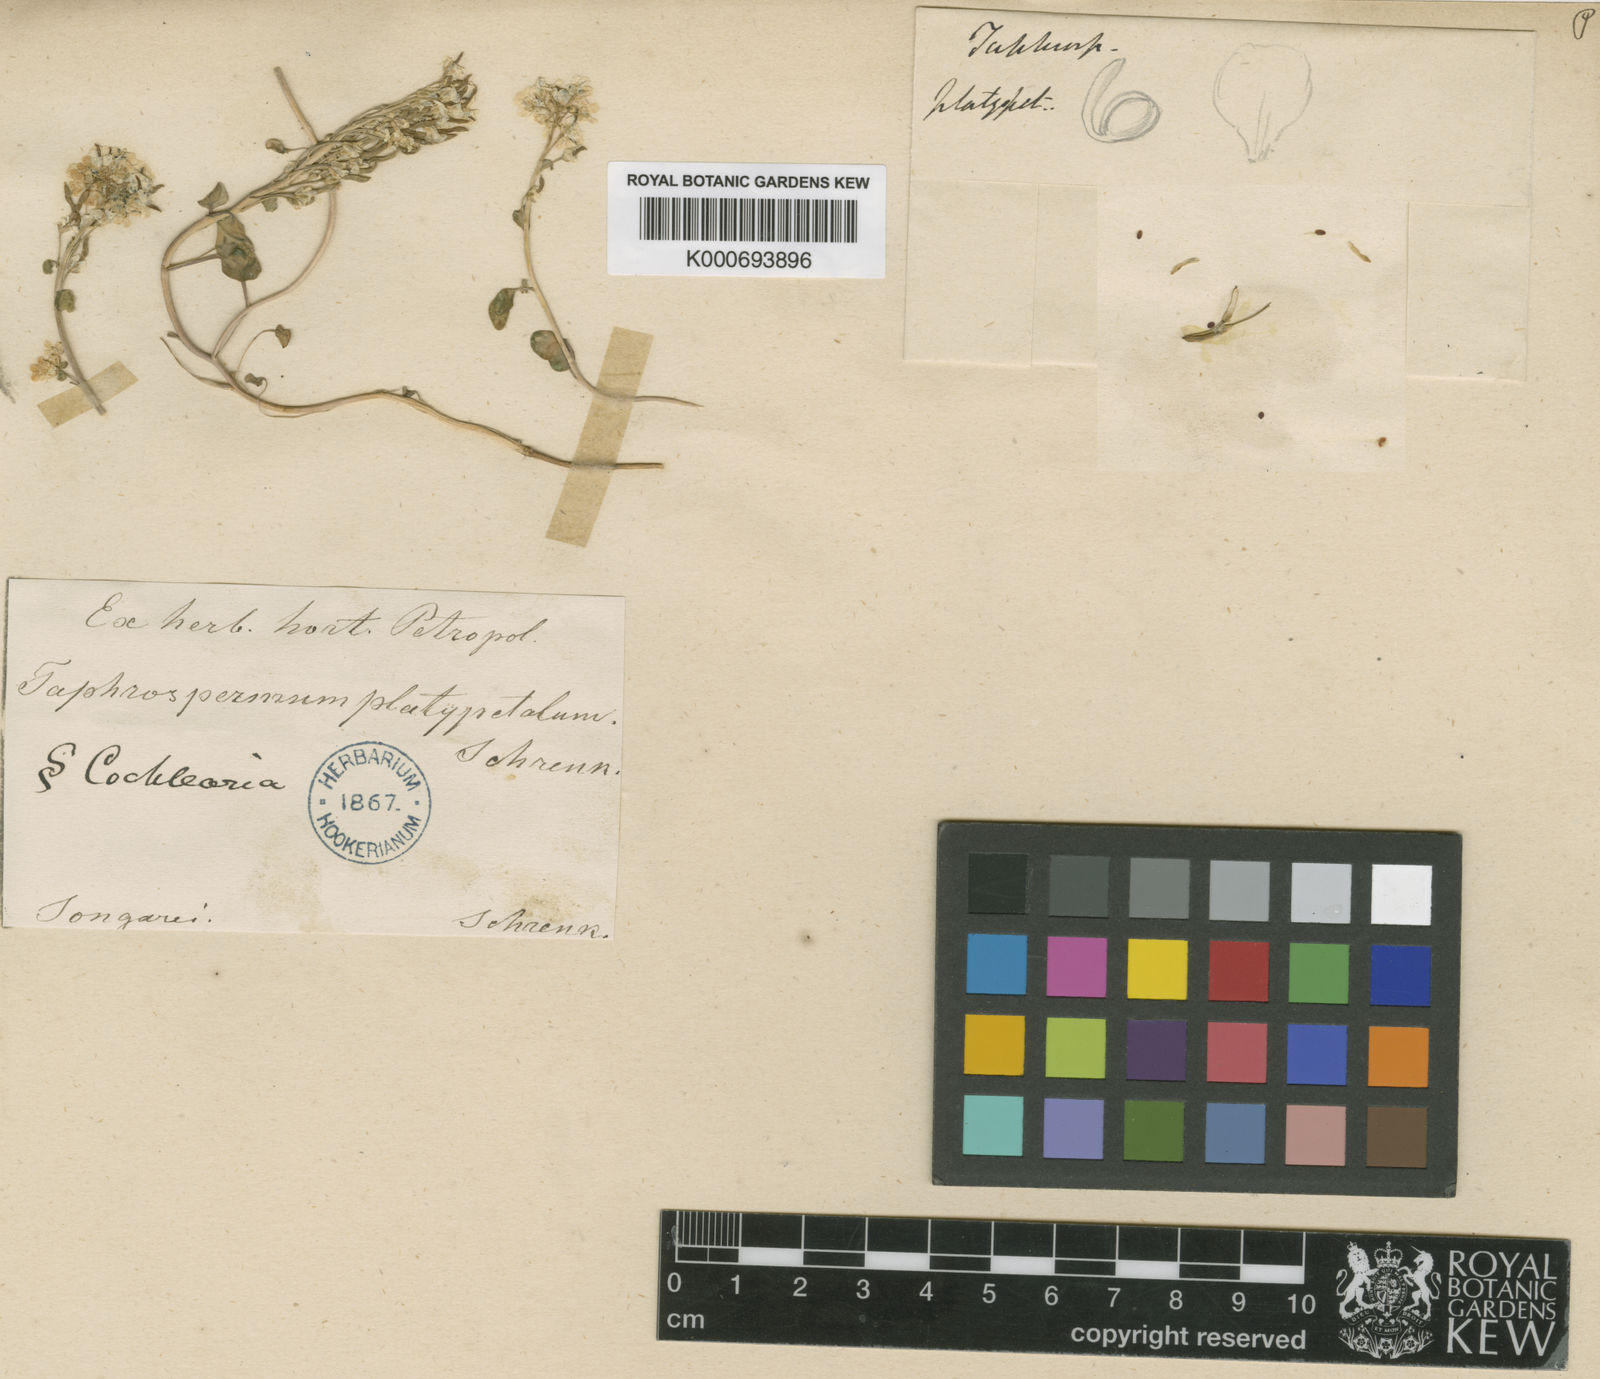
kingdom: Plantae
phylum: Tracheophyta
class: Magnoliopsida
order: Brassicales
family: Brassicaceae
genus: Eutrema
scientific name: Eutrema
